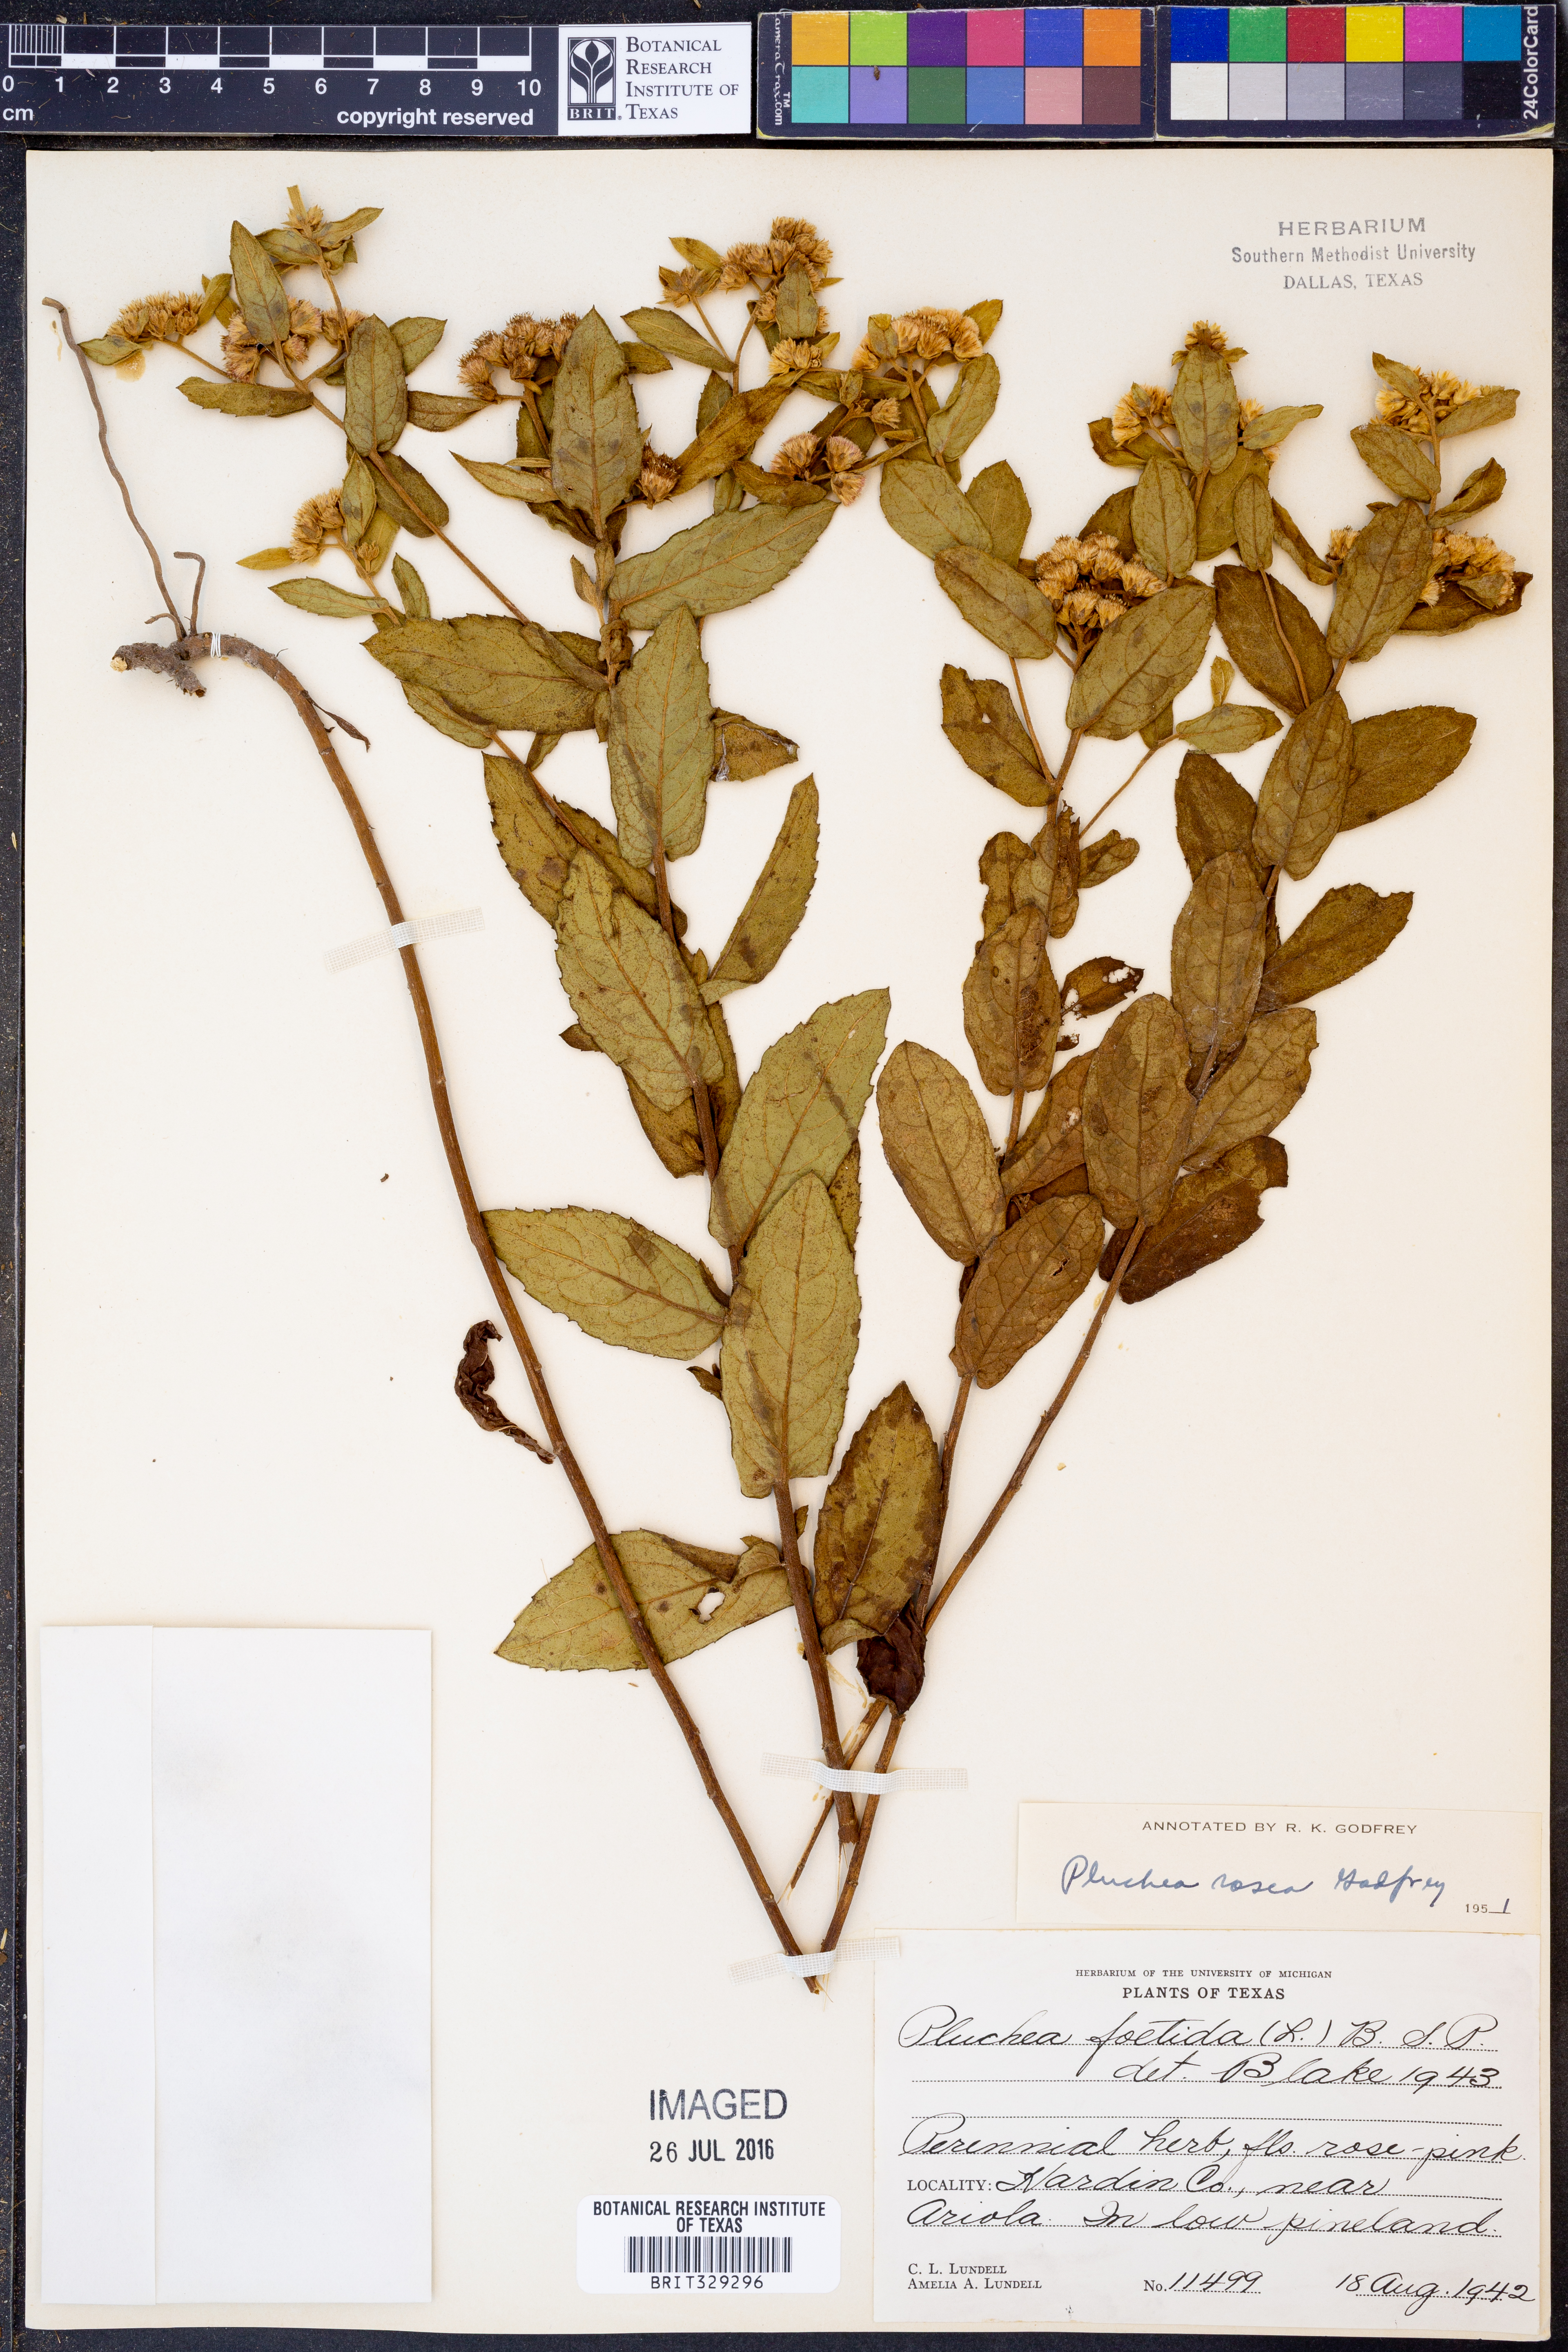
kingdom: Plantae
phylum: Tracheophyta
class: Magnoliopsida
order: Asterales
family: Asteraceae
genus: Pluchea
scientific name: Pluchea baccharis
